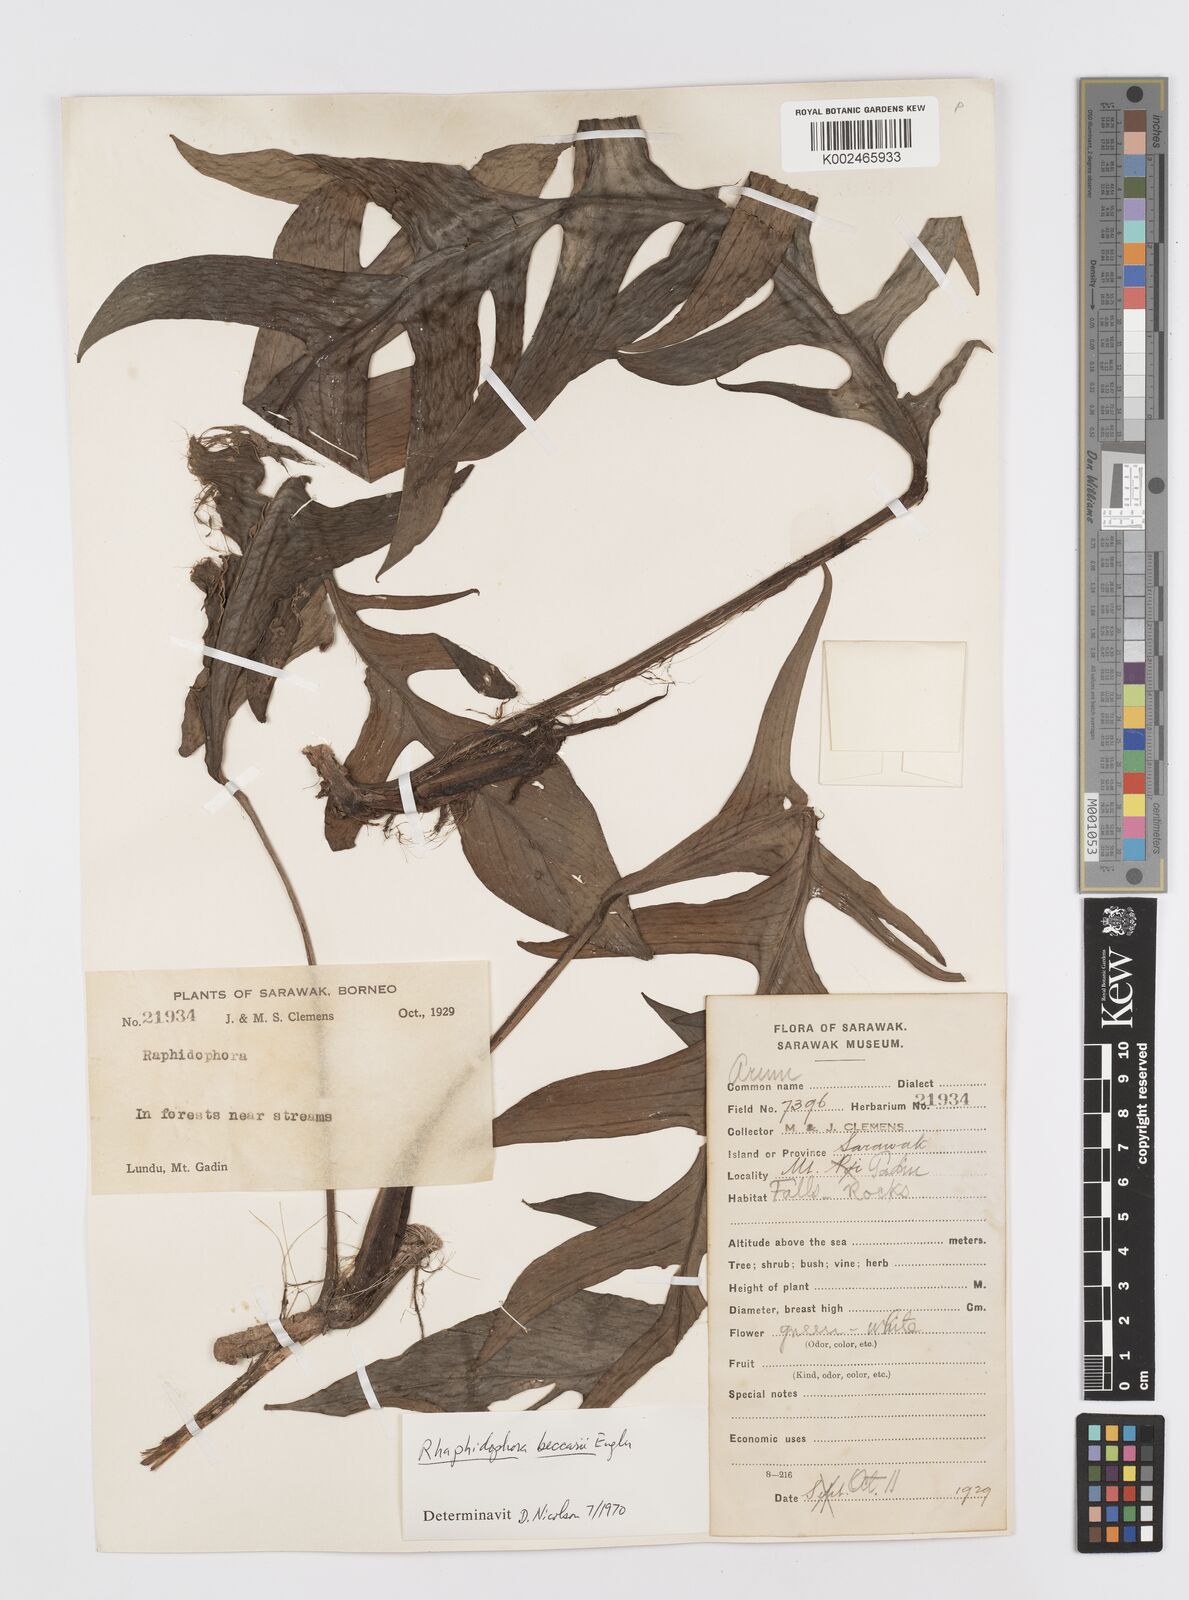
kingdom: Plantae
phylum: Tracheophyta
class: Liliopsida
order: Alismatales
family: Araceae
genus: Rhaphidophora
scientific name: Rhaphidophora beccarii
